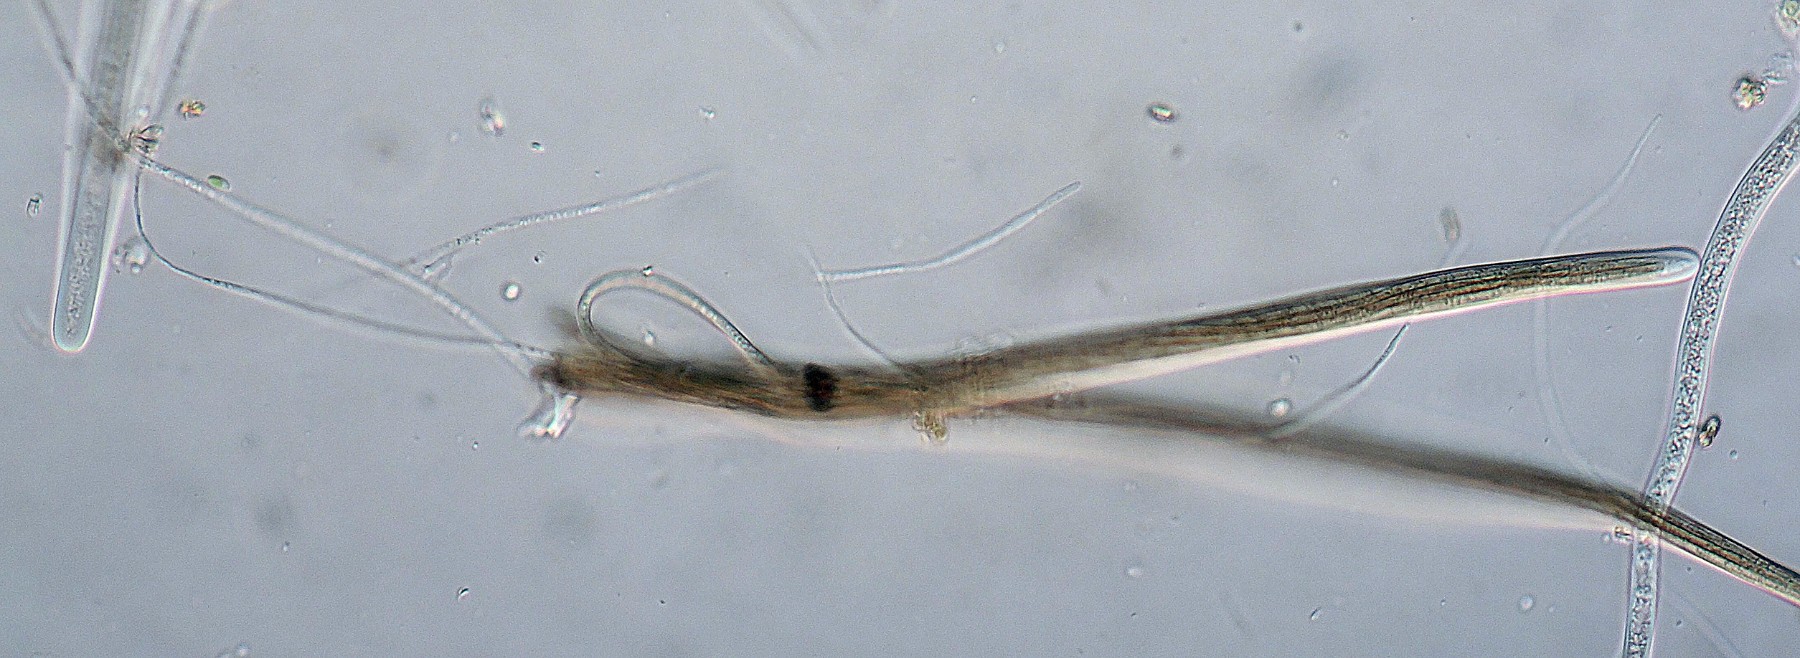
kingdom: Fungi
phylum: Ascomycota
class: Eurotiomycetes
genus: Glyphium
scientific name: Glyphium elatum
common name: kuløkse
